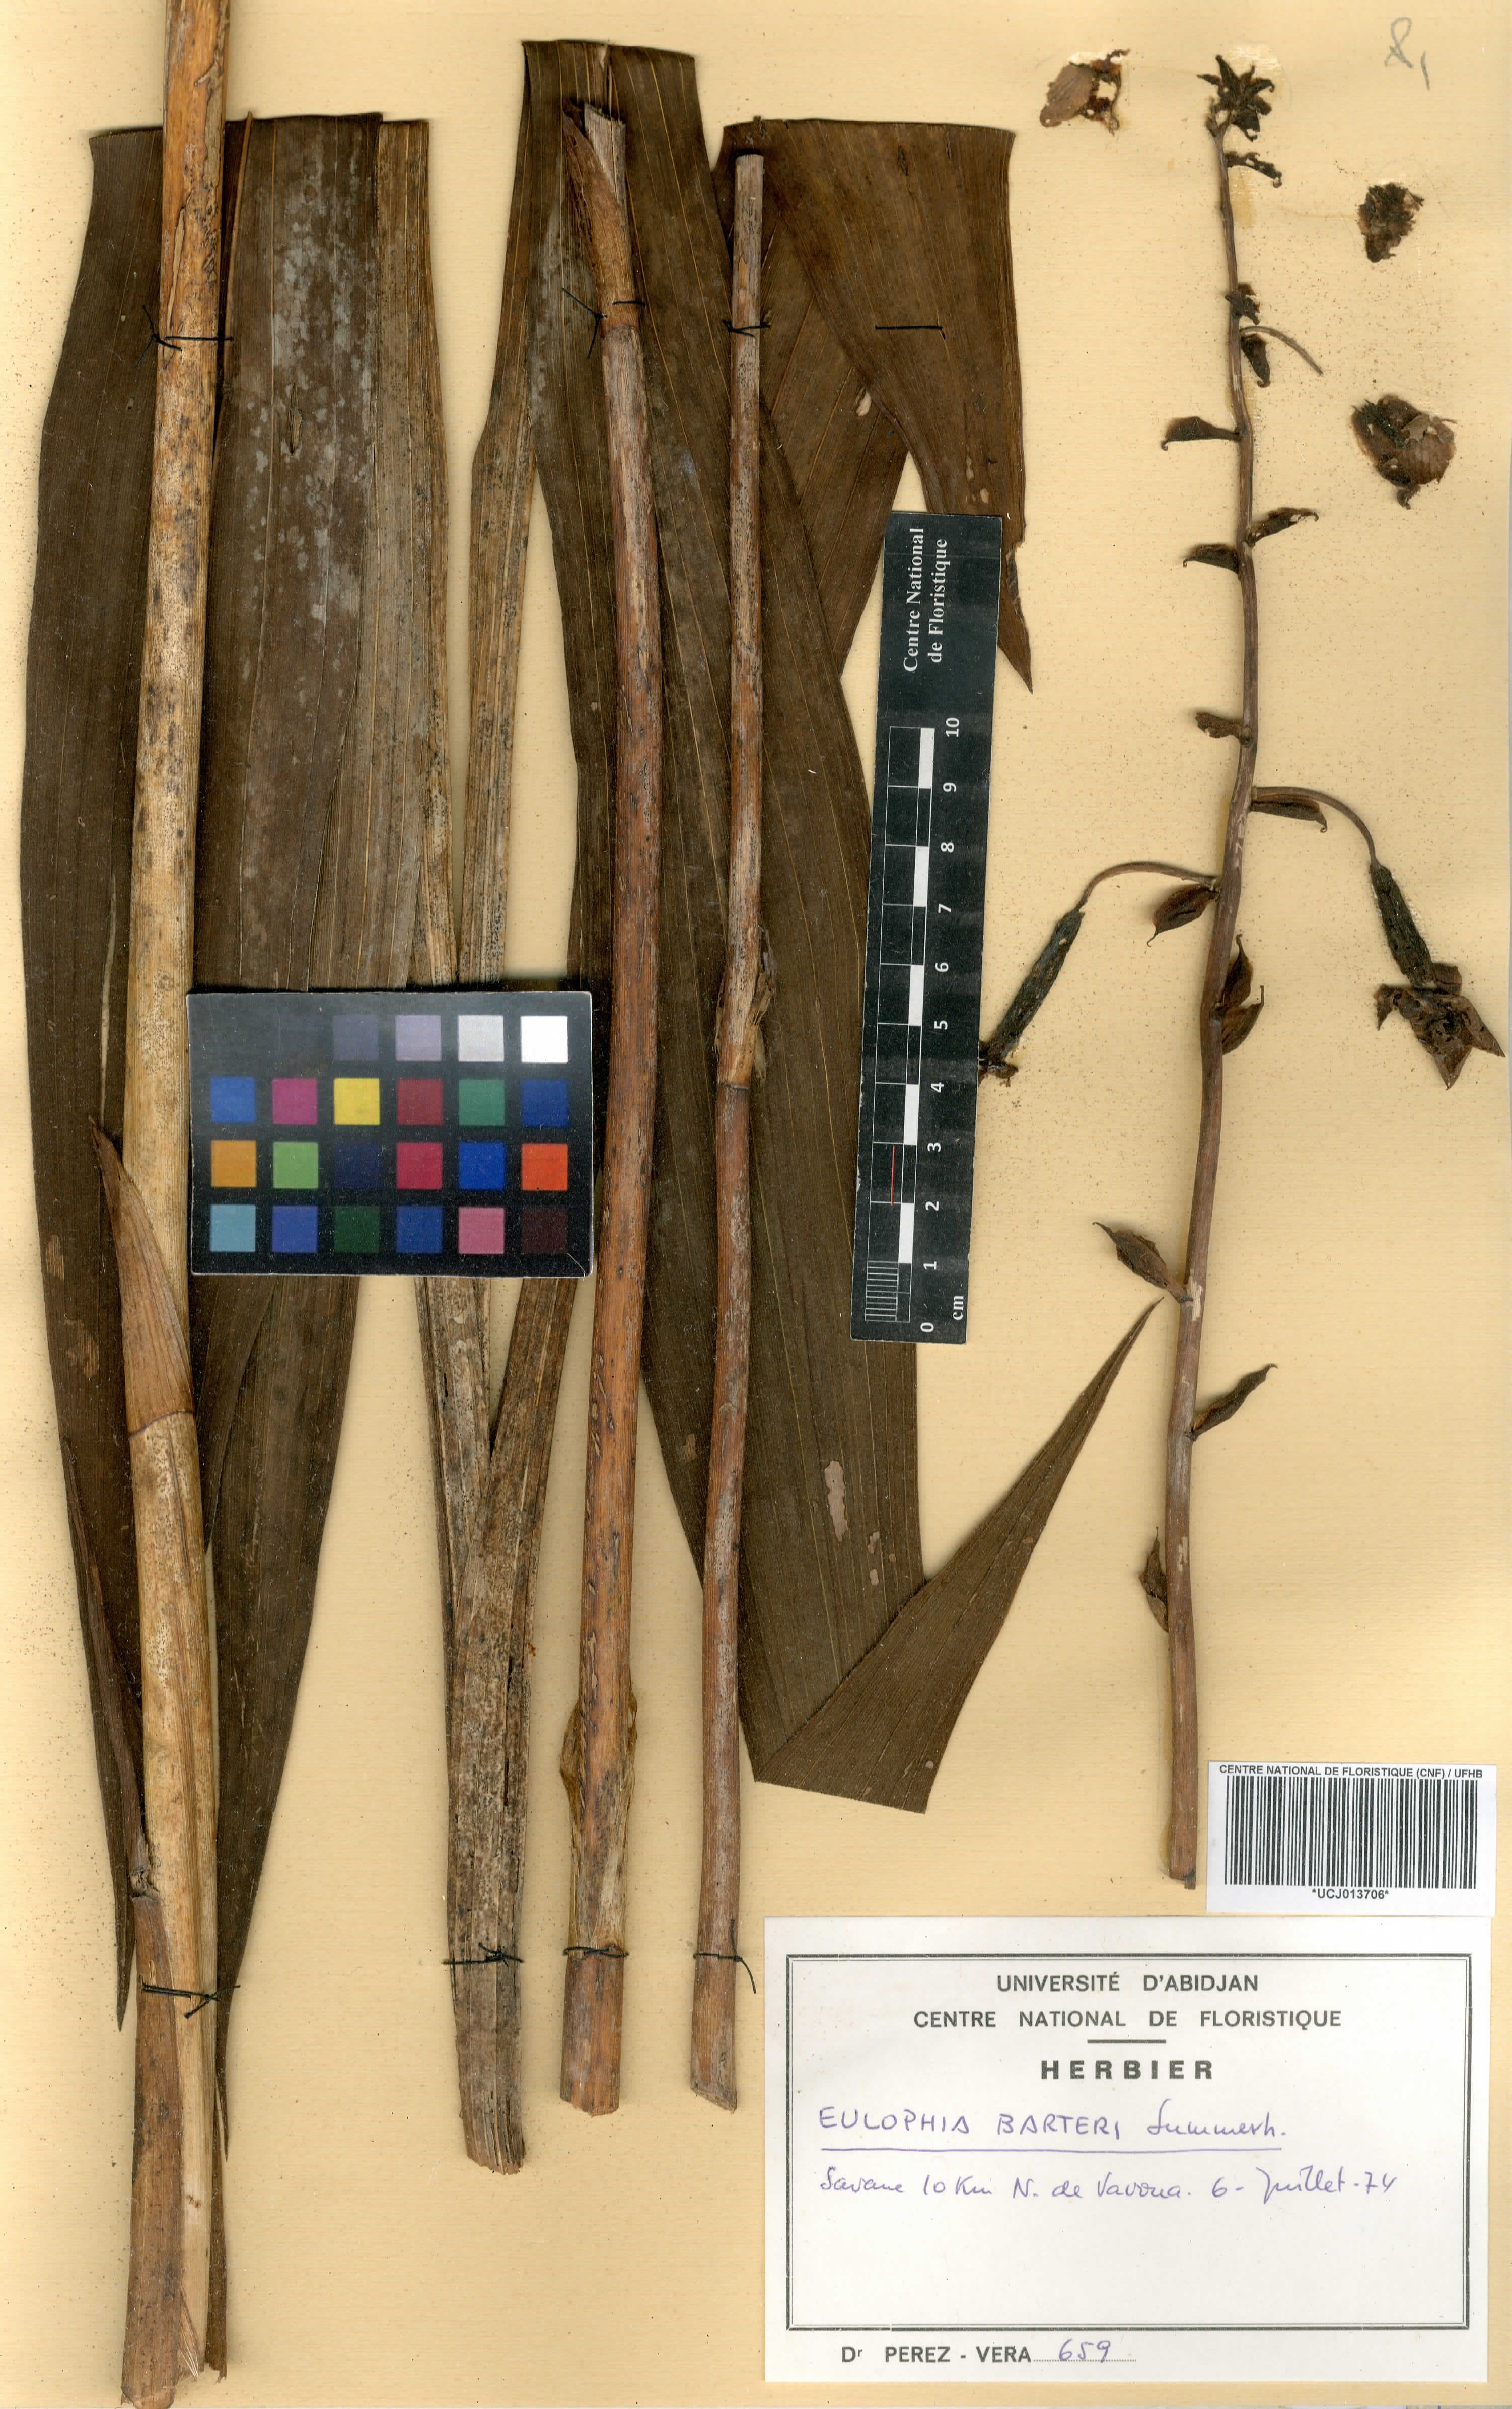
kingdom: Plantae
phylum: Tracheophyta
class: Liliopsida
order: Asparagales
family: Orchidaceae
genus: Eulophia
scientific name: Eulophia barteri
